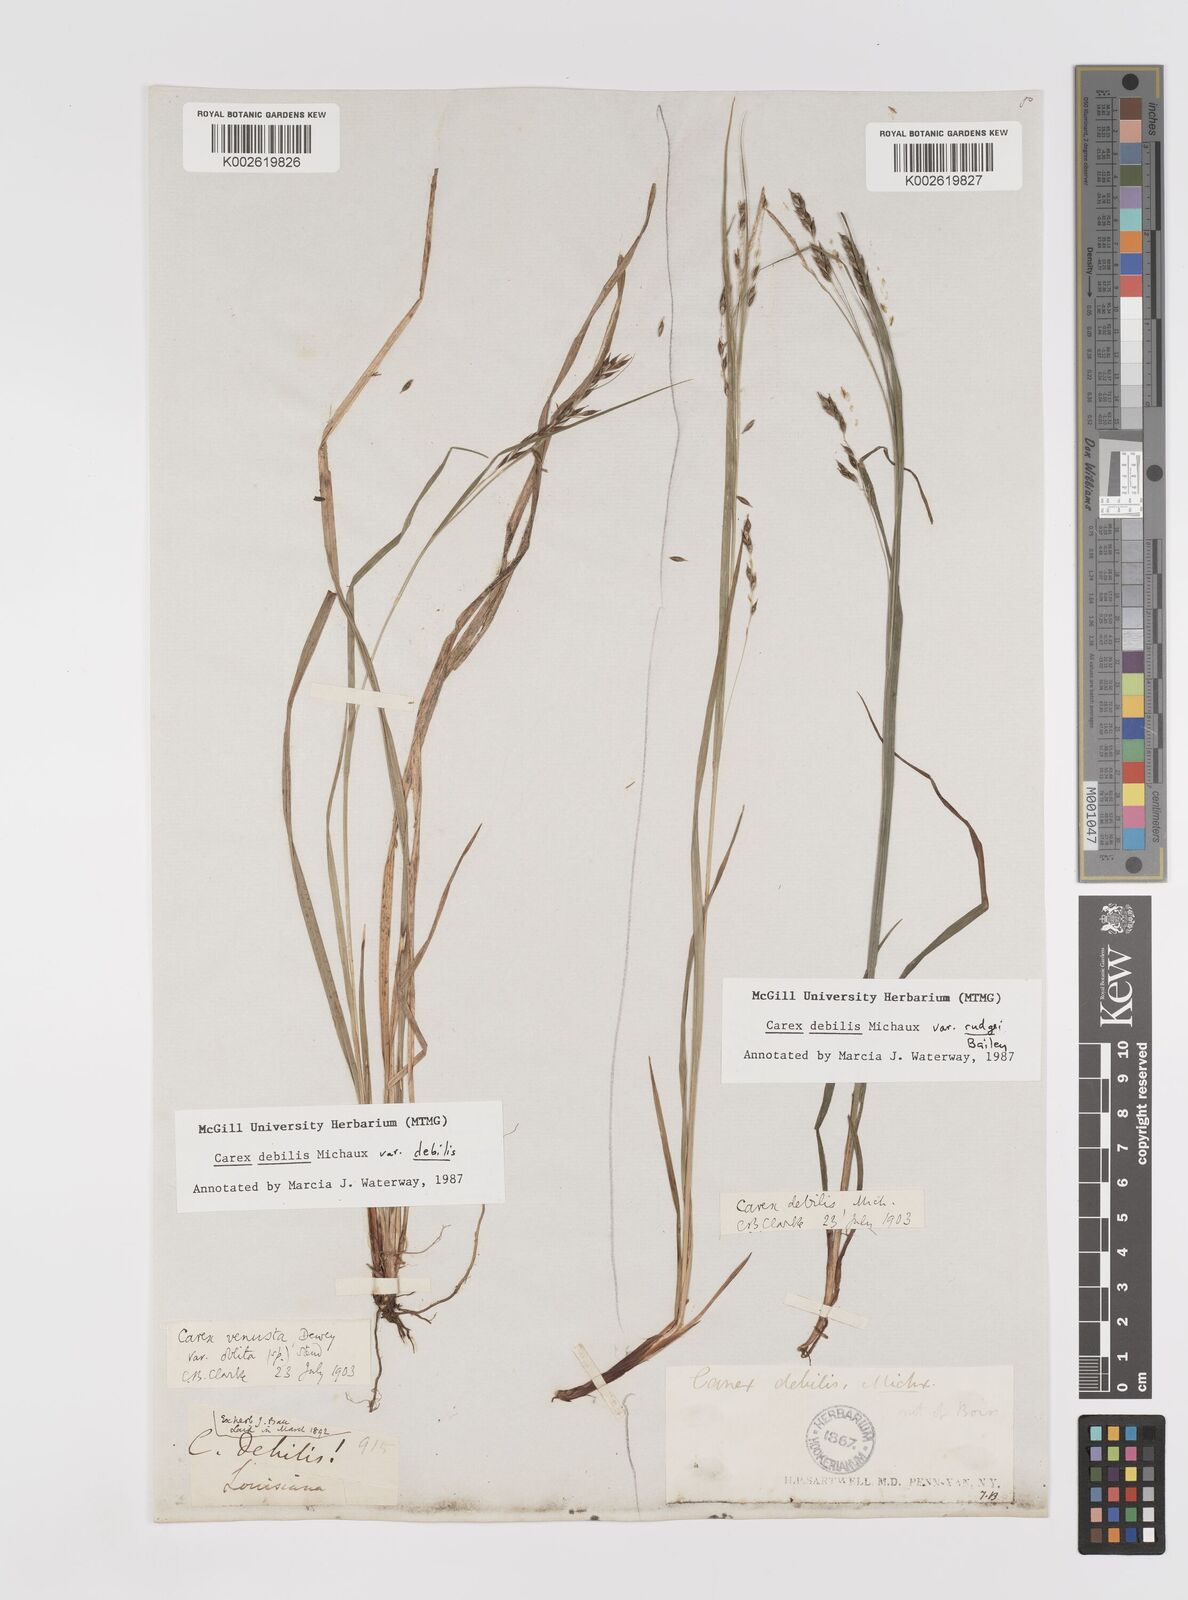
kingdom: Plantae
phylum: Tracheophyta
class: Liliopsida
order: Poales
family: Cyperaceae
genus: Carex
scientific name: Carex debilis
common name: White-edge sedge
